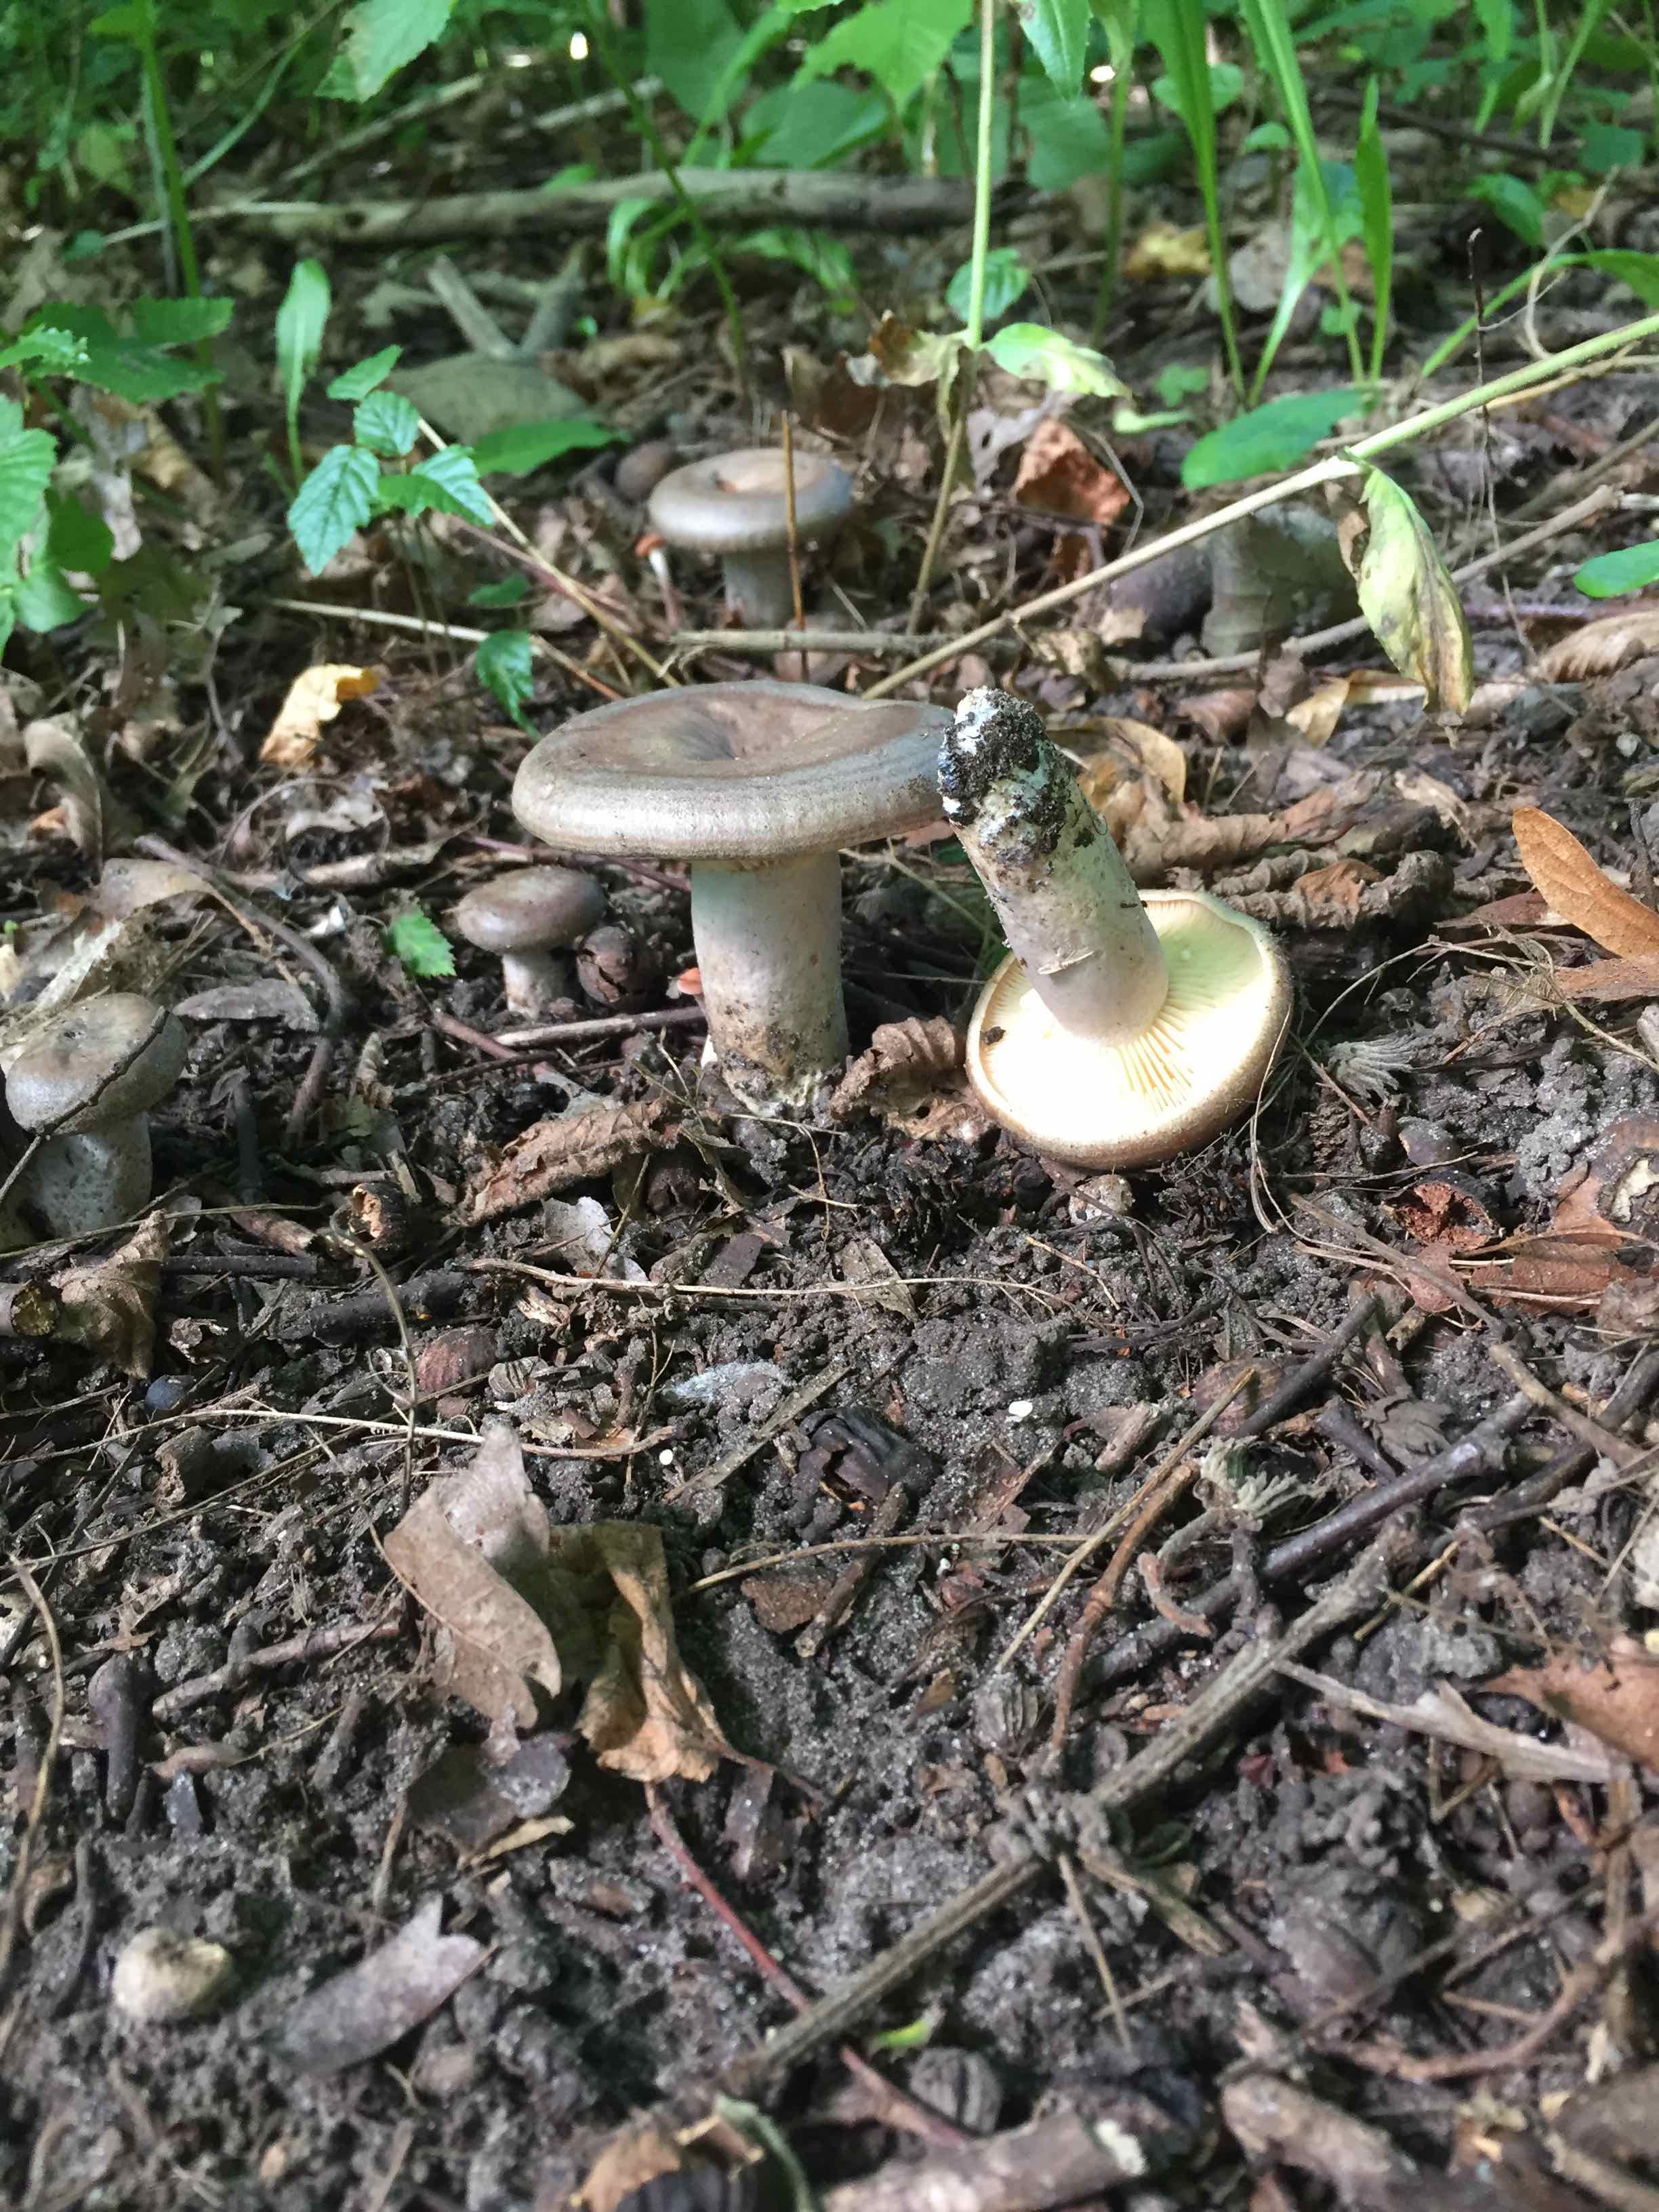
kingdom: Fungi
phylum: Basidiomycota
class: Agaricomycetes
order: Russulales
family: Russulaceae
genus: Lactarius
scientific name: Lactarius pyrogalus
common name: hassel-mælkehat
